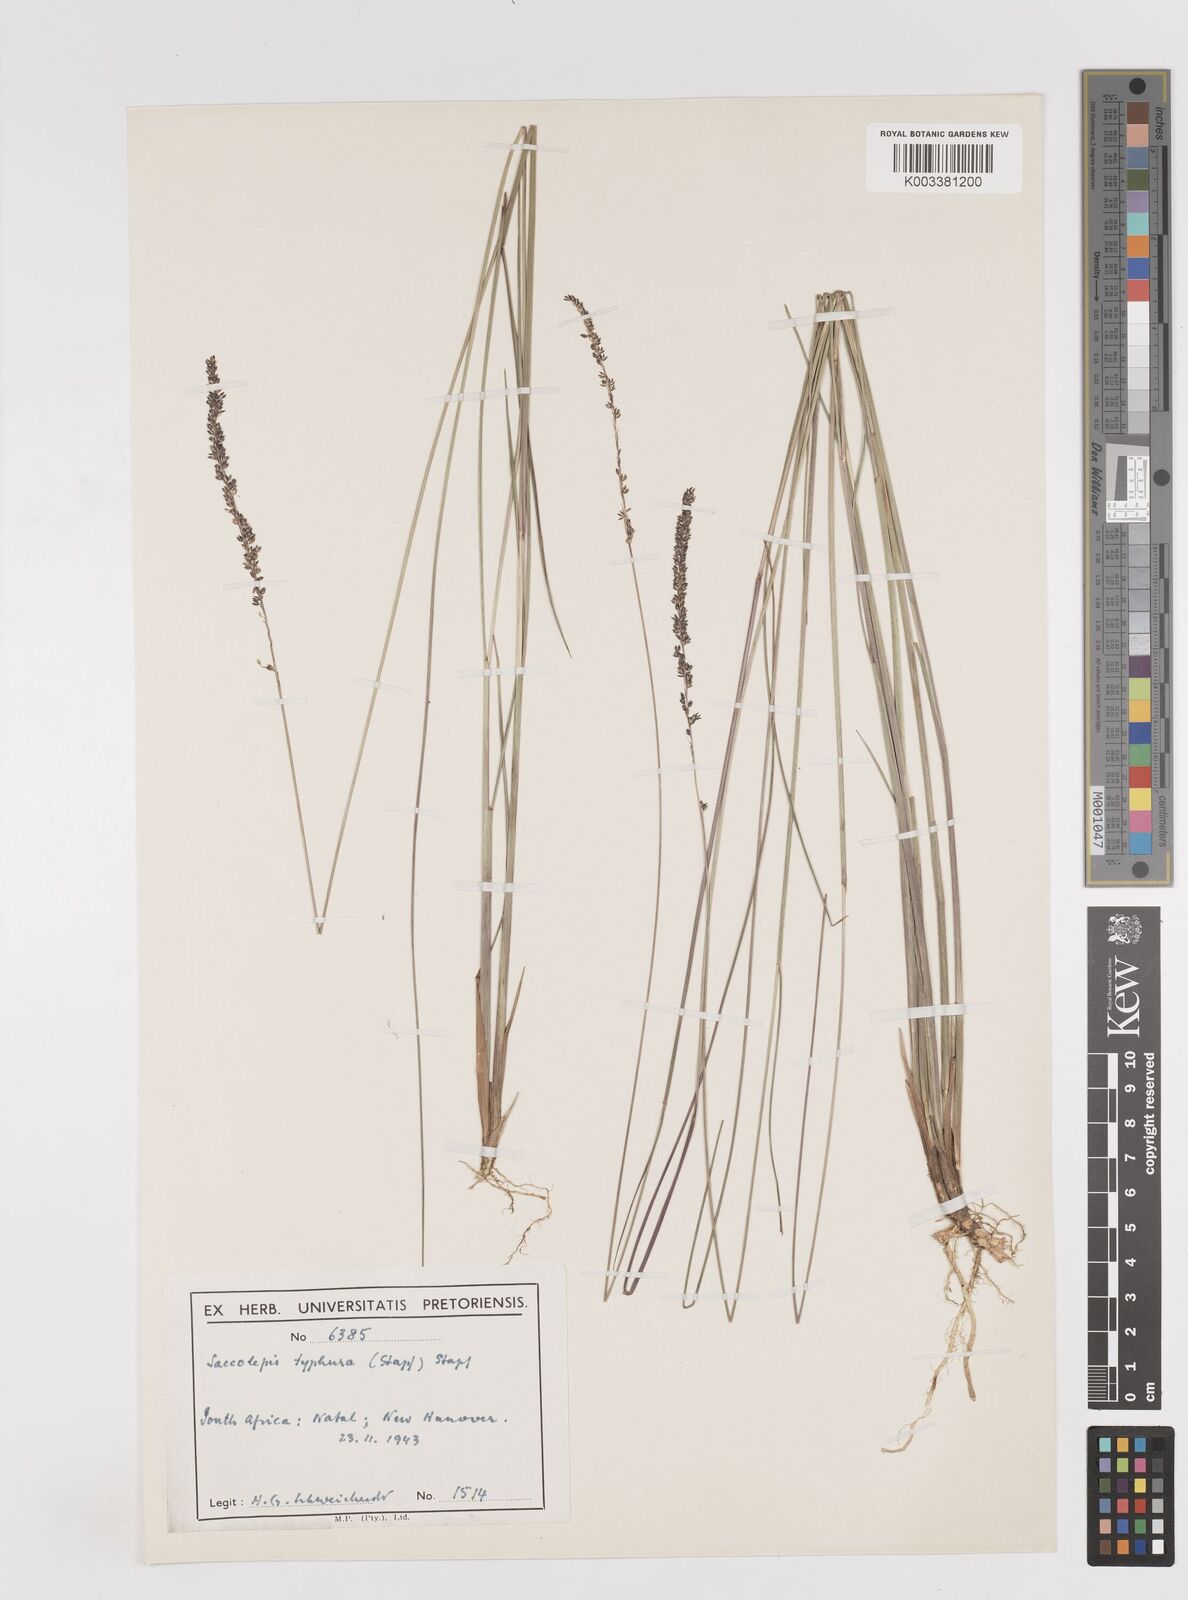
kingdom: Plantae
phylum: Tracheophyta
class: Liliopsida
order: Poales
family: Poaceae
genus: Sacciolepis
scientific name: Sacciolepis chevalieri
